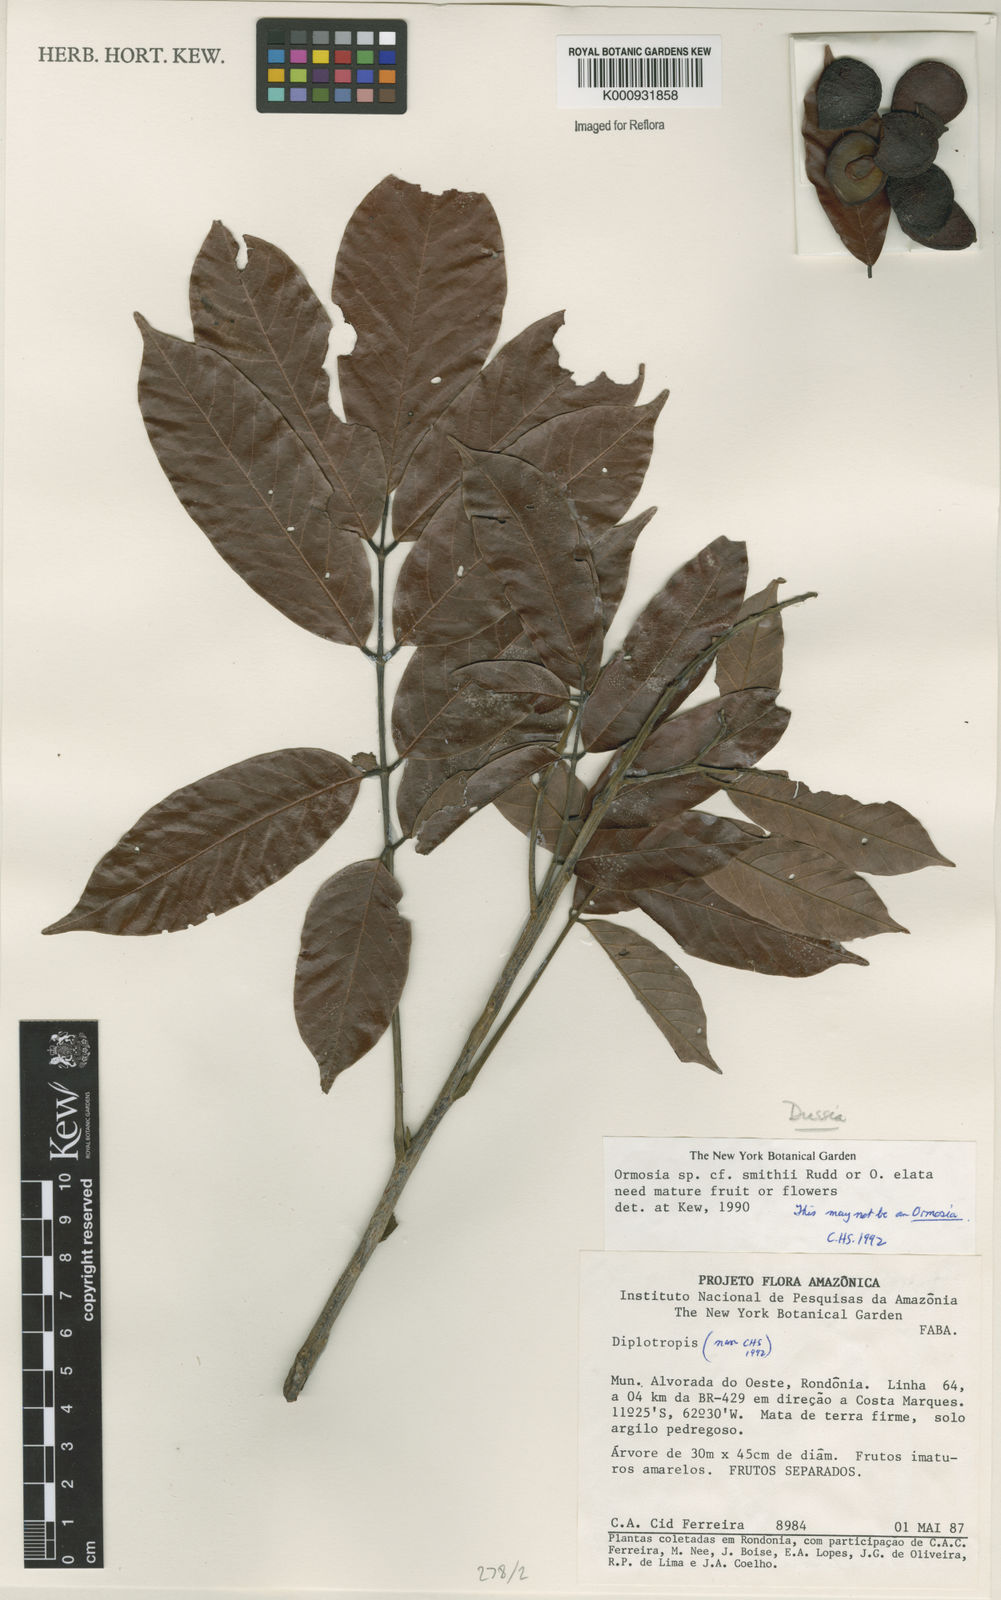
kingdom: Plantae
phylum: Tracheophyta
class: Magnoliopsida
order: Fabales
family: Fabaceae
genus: Dussia
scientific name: Dussia
